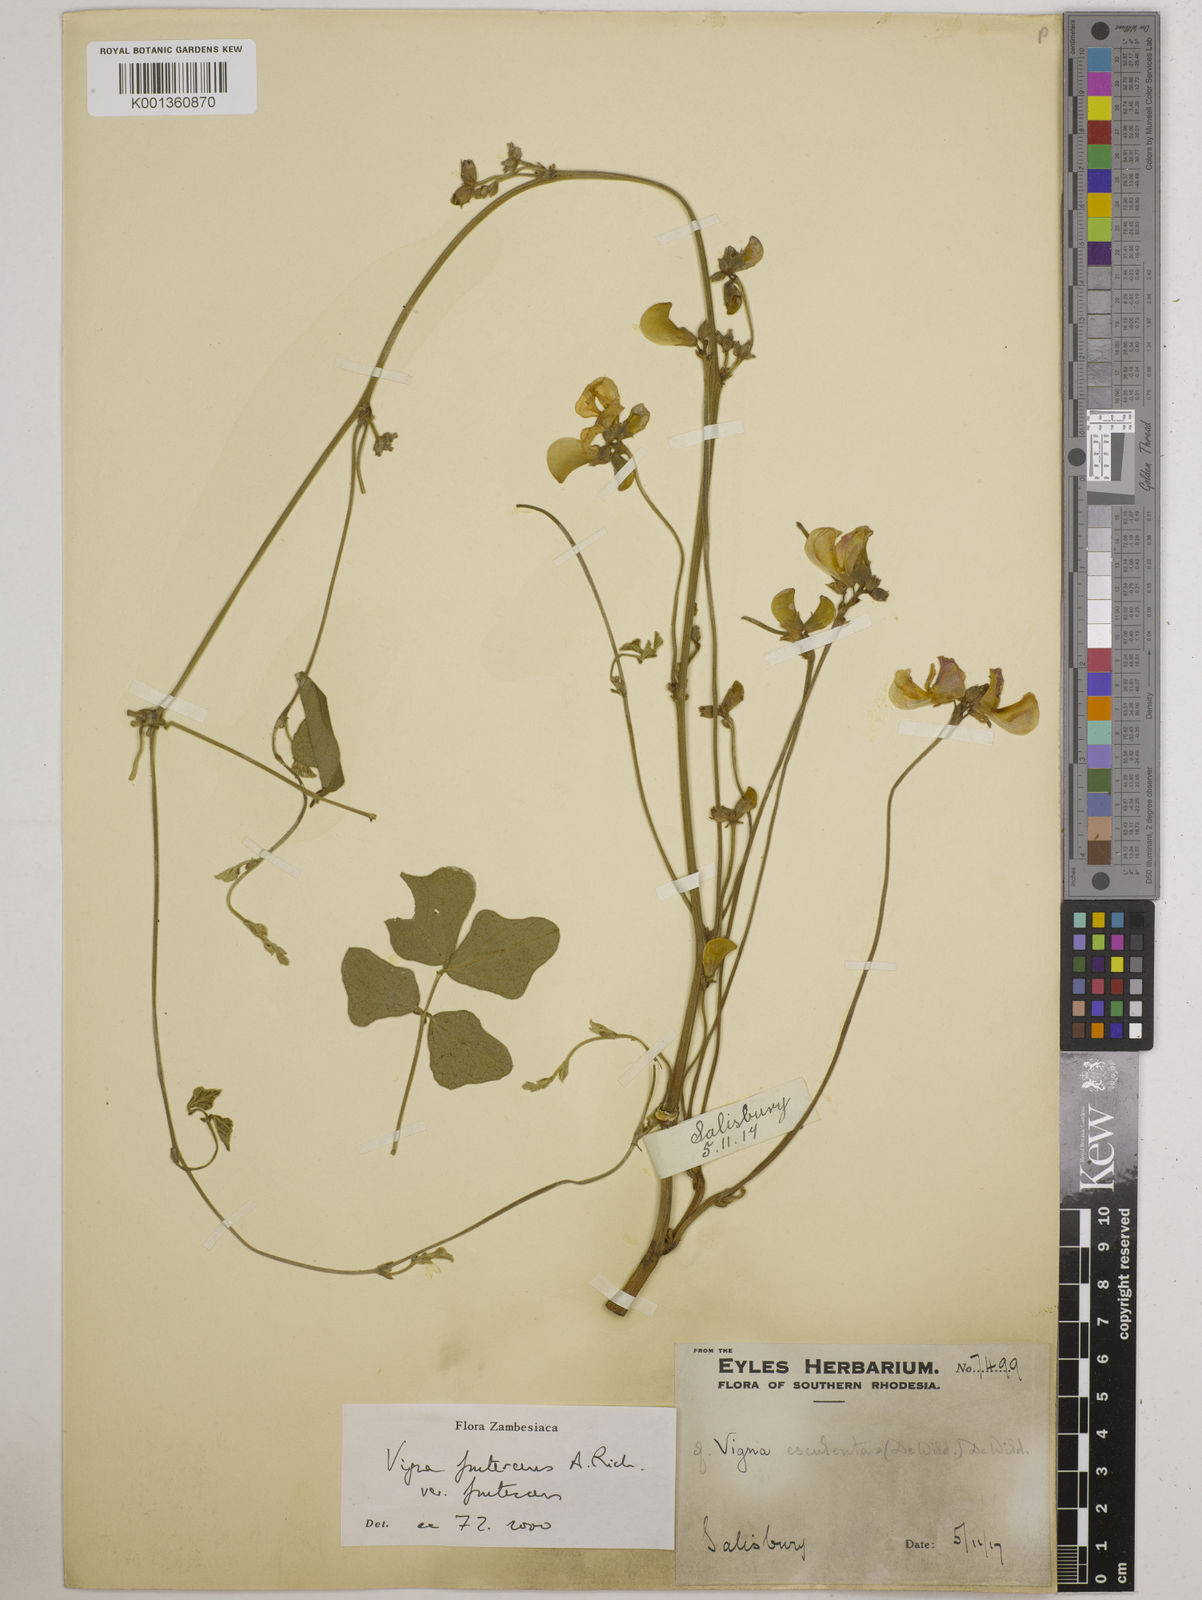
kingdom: Plantae
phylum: Tracheophyta
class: Magnoliopsida
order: Fabales
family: Fabaceae
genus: Vigna
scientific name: Vigna
